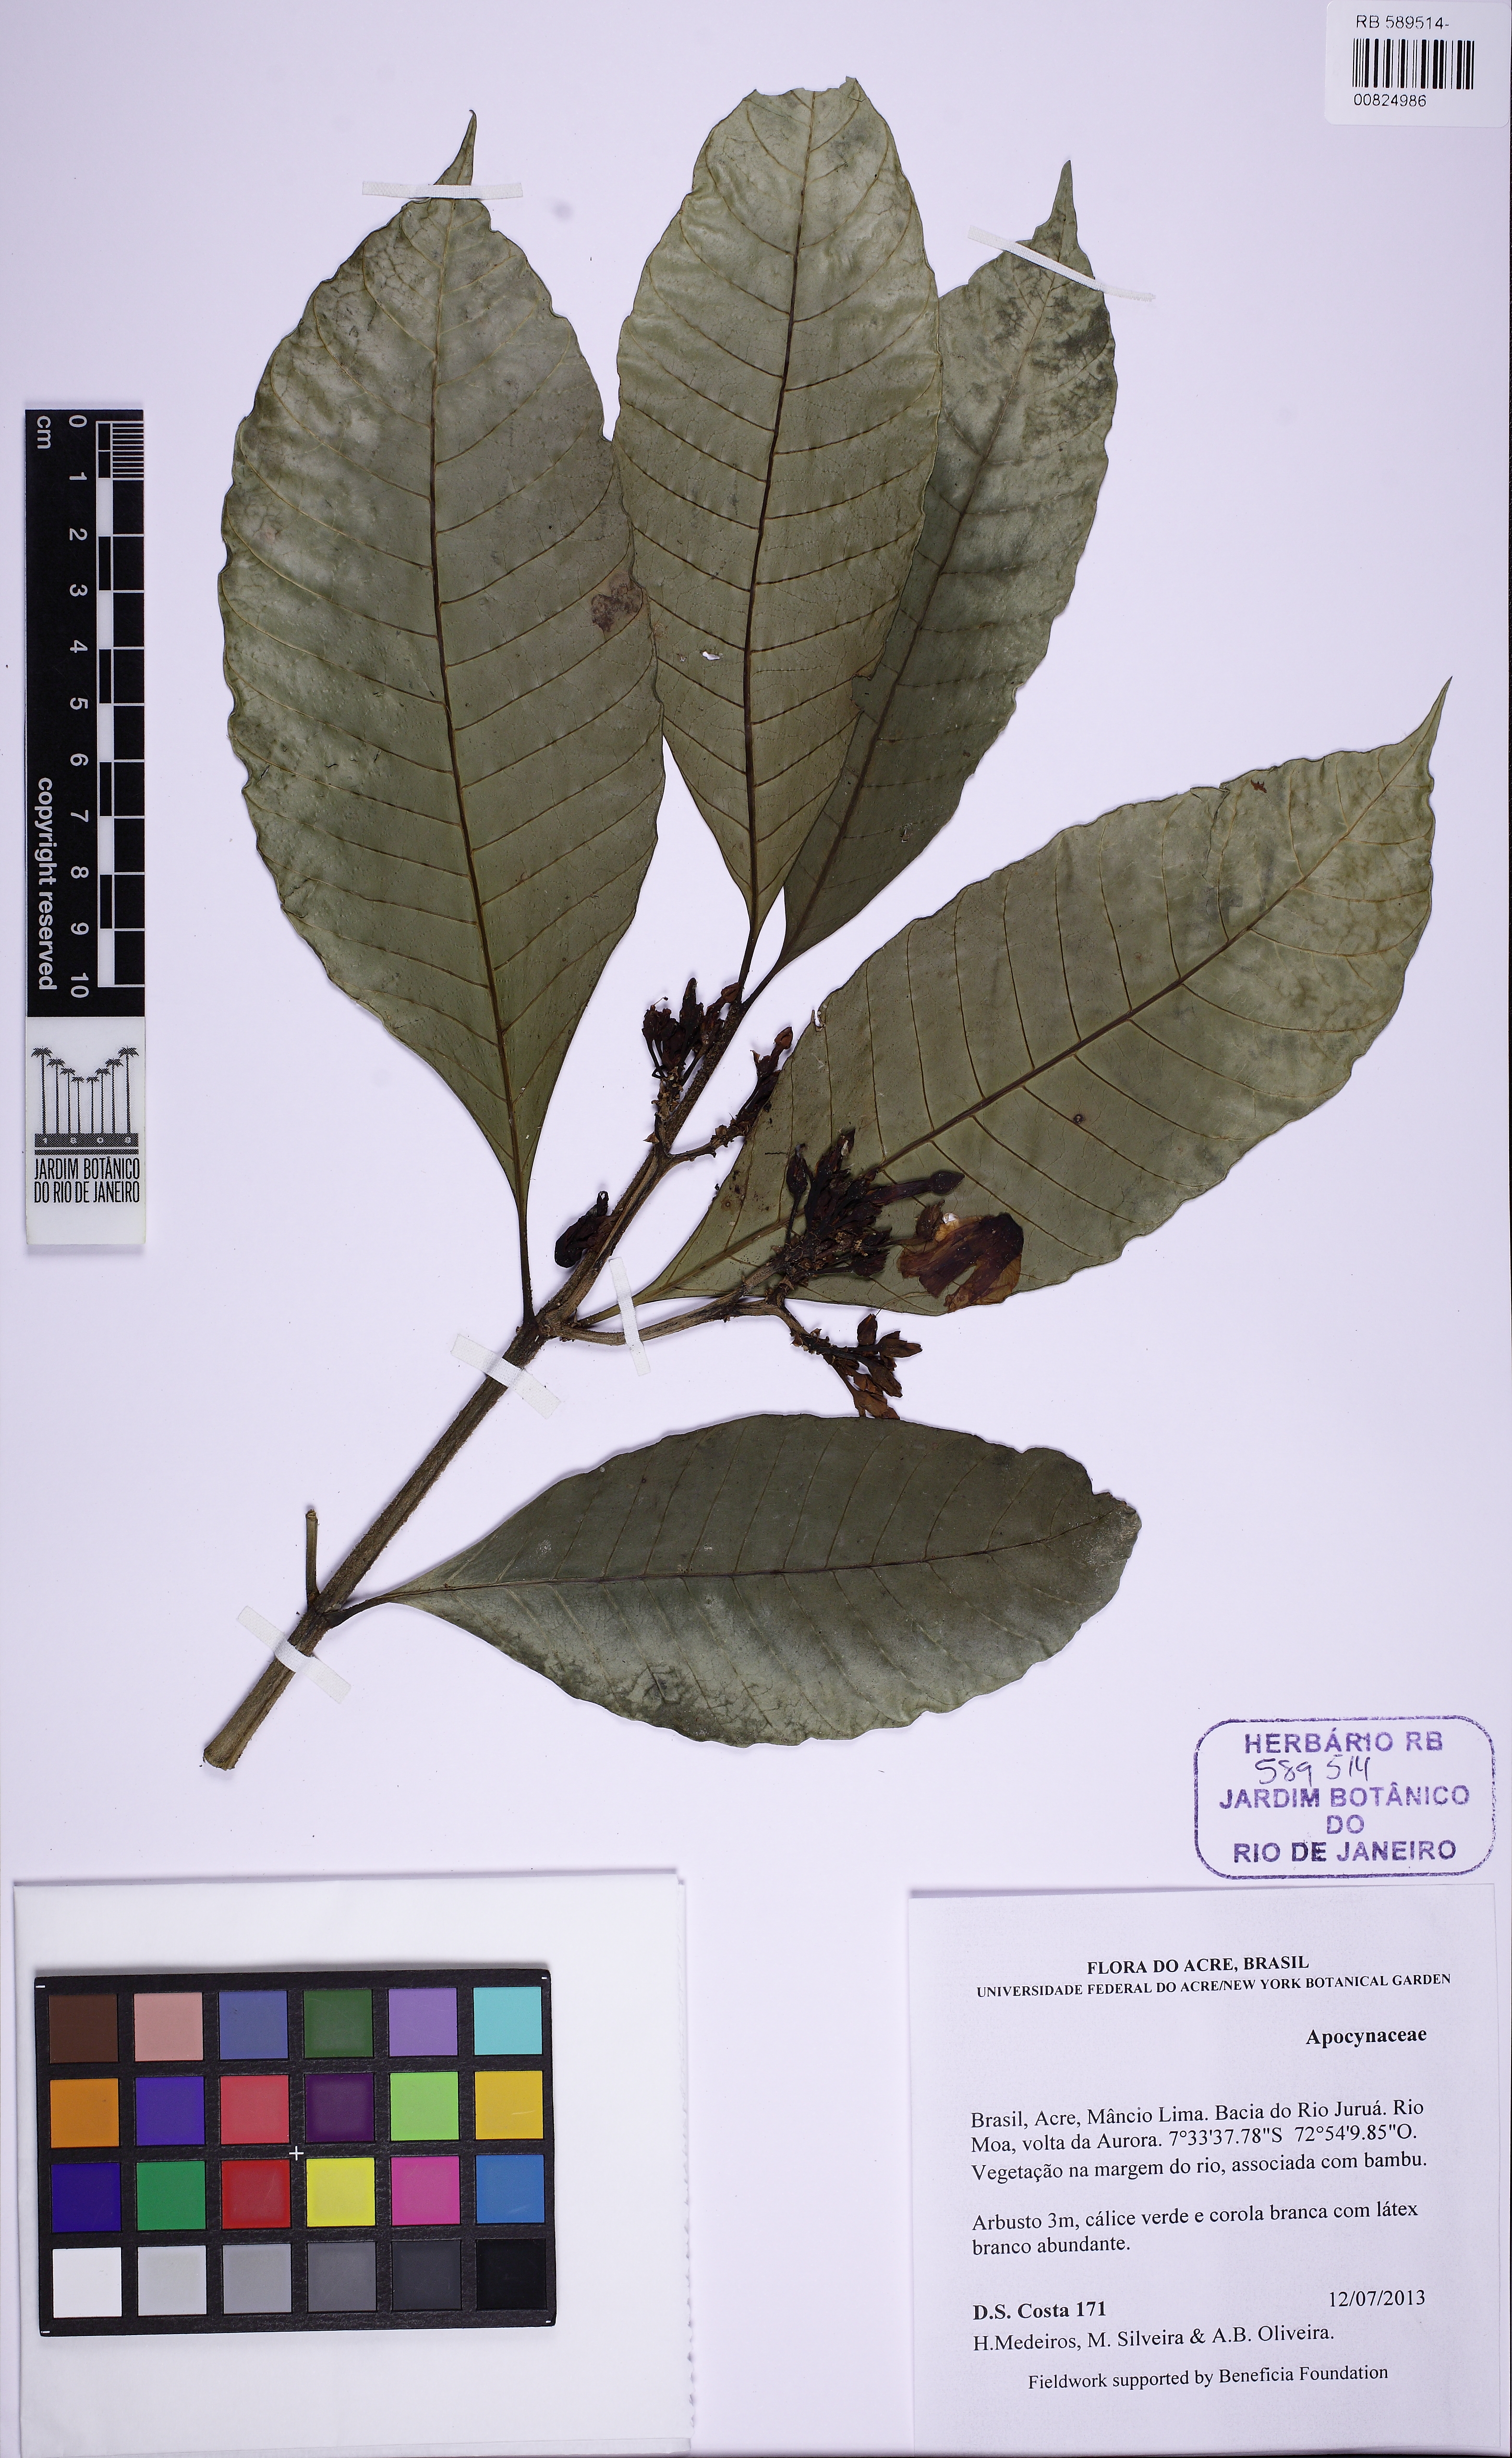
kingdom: Plantae
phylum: Tracheophyta
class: Magnoliopsida
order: Gentianales
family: Apocynaceae
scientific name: Apocynaceae
